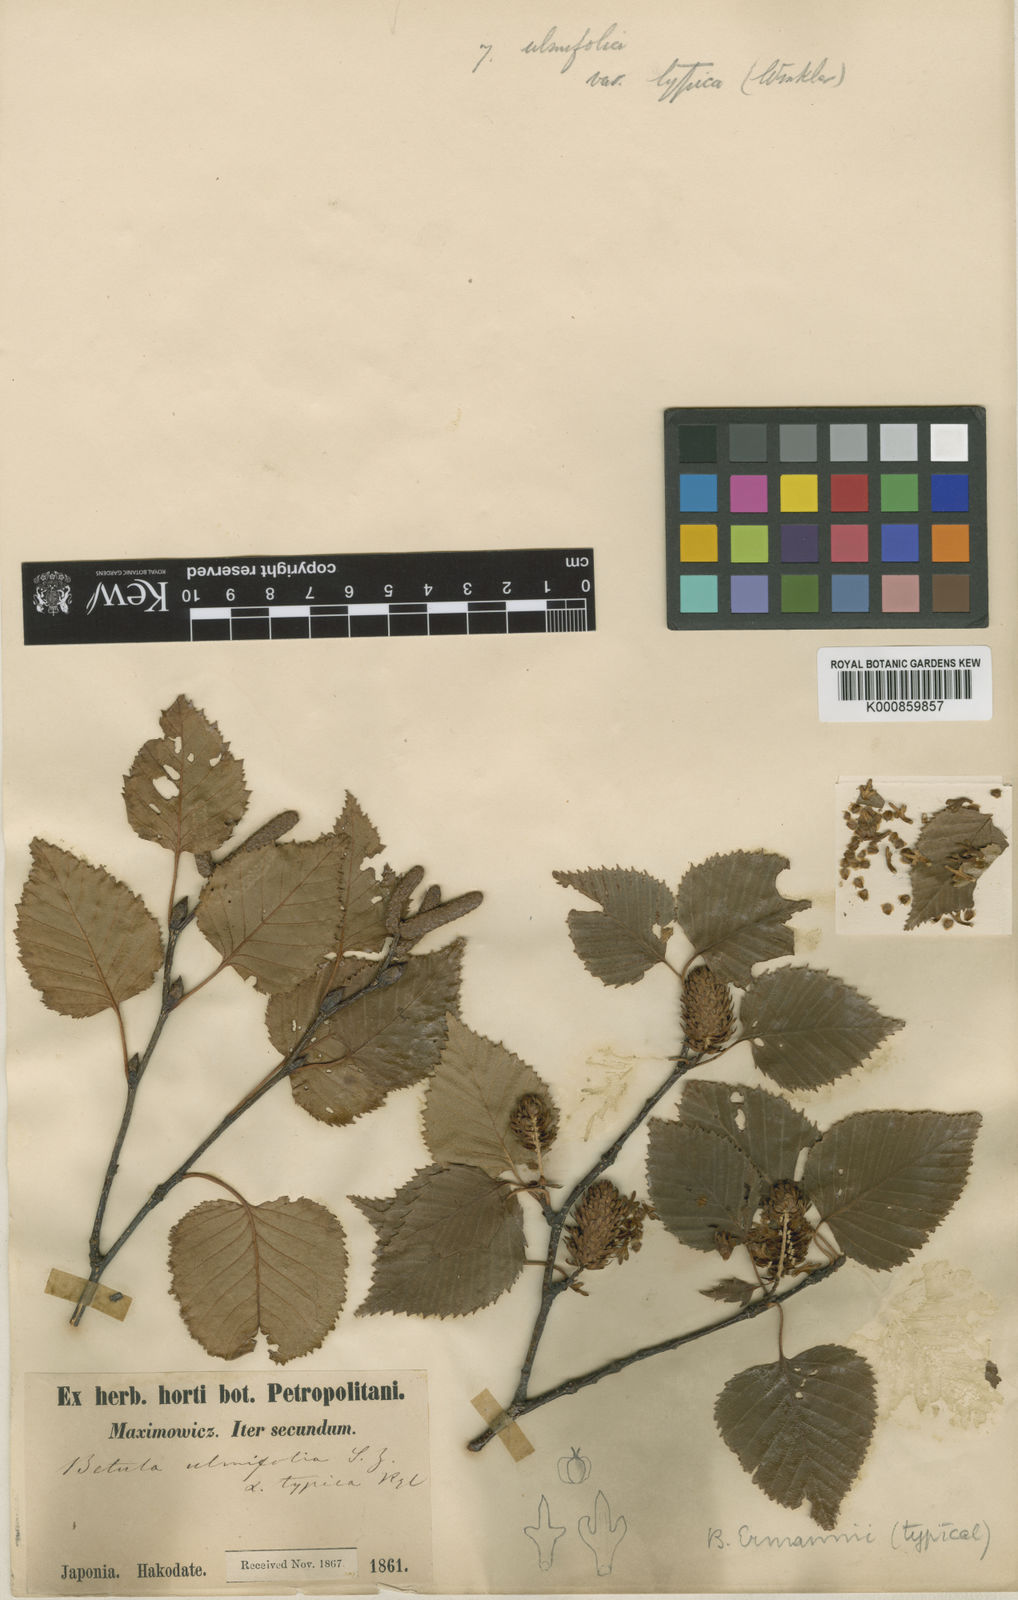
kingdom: Plantae
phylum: Tracheophyta
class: Magnoliopsida
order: Fagales
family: Betulaceae
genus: Betula
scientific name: Betula ermanii
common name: Erman's birch
